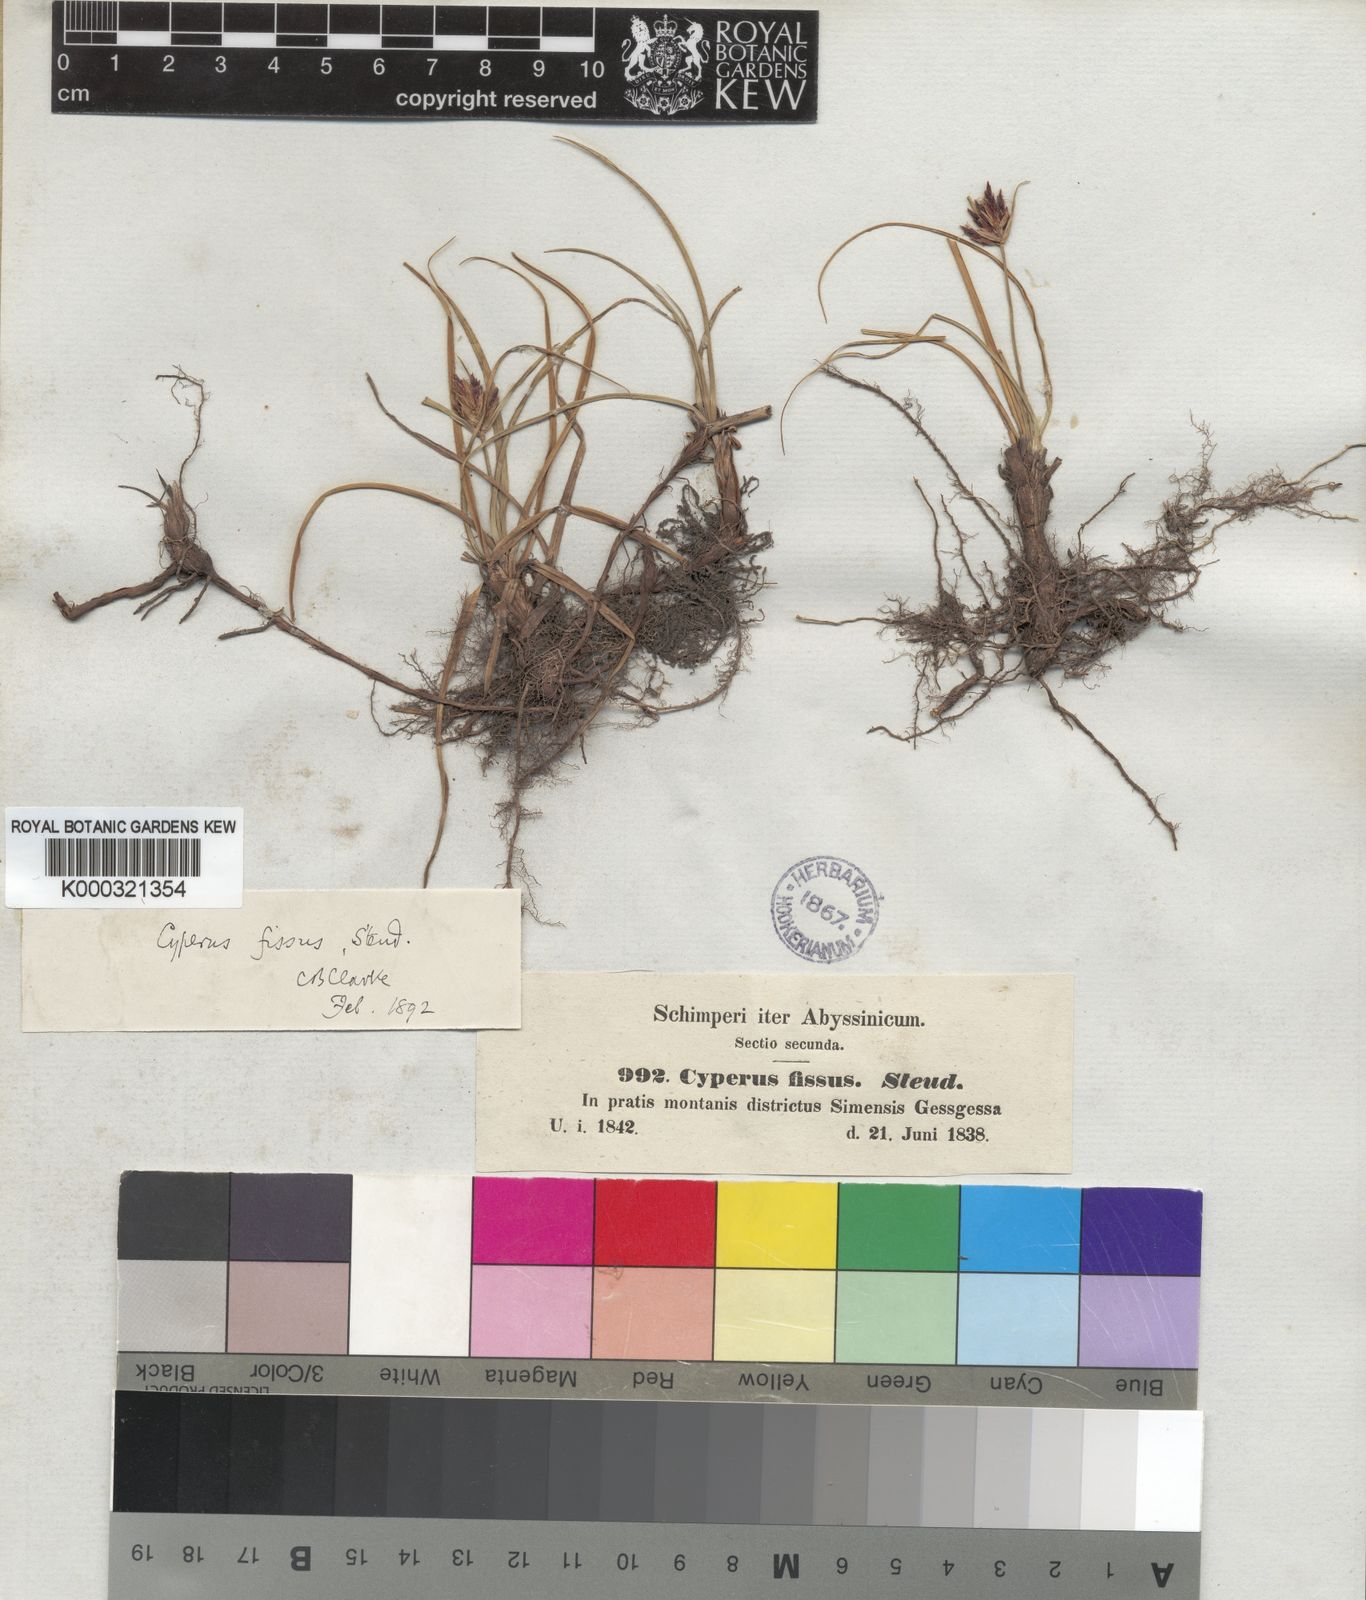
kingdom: Plantae
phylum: Tracheophyta
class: Liliopsida
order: Poales
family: Cyperaceae
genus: Cyperus
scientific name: Cyperus fissus
